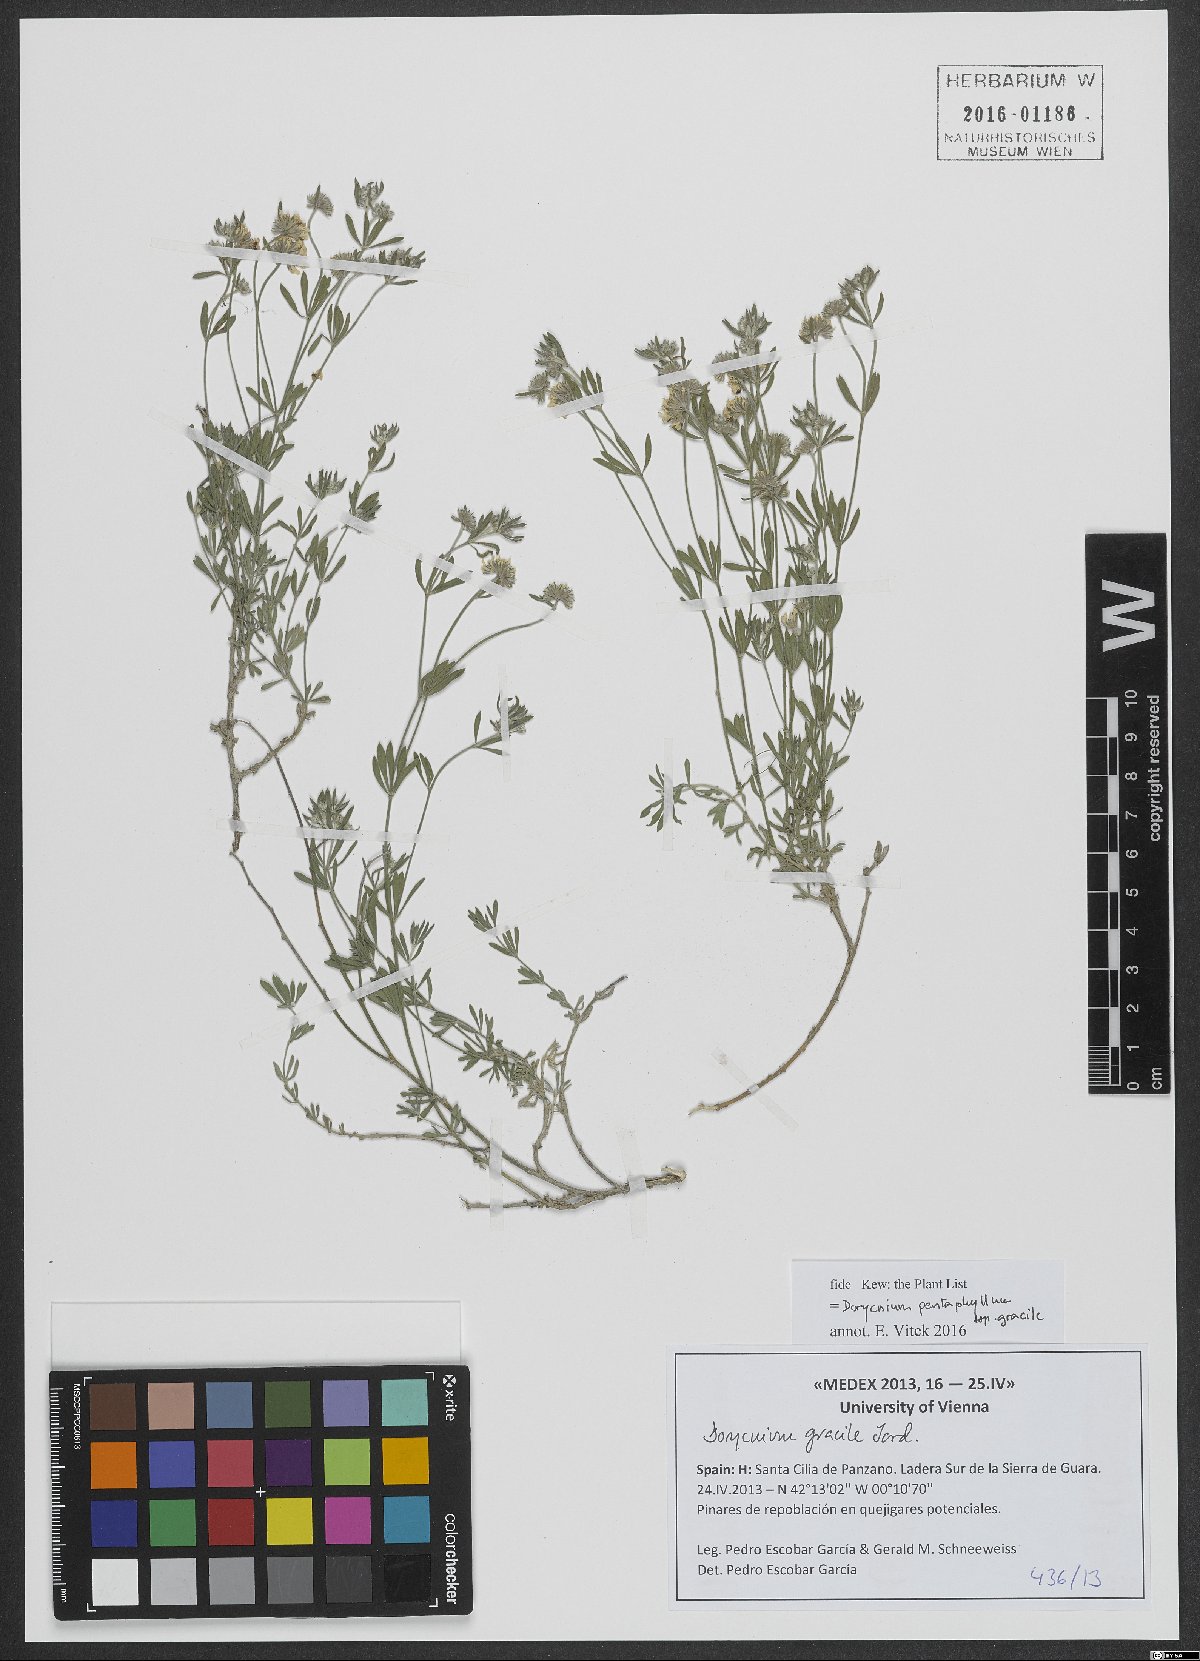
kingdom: Plantae
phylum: Tracheophyta
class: Magnoliopsida
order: Fabales
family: Fabaceae
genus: Lotus
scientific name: Lotus jordanii
